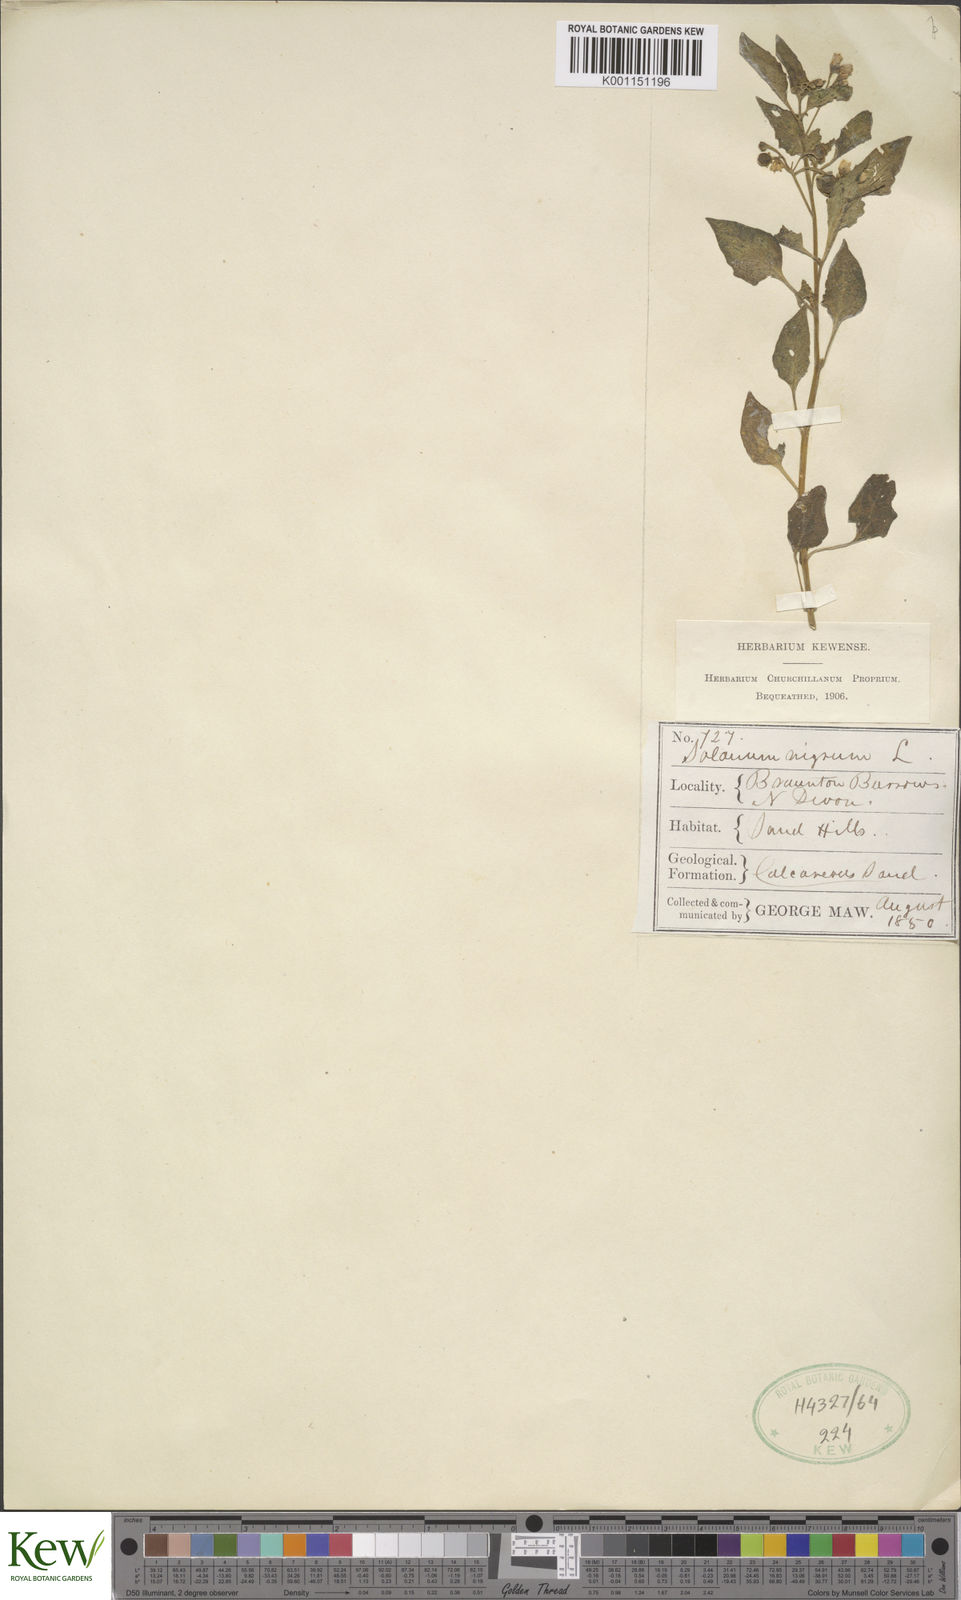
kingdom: Plantae
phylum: Tracheophyta
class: Magnoliopsida
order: Solanales
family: Solanaceae
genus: Solanum
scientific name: Solanum nigrum
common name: Black nightshade
